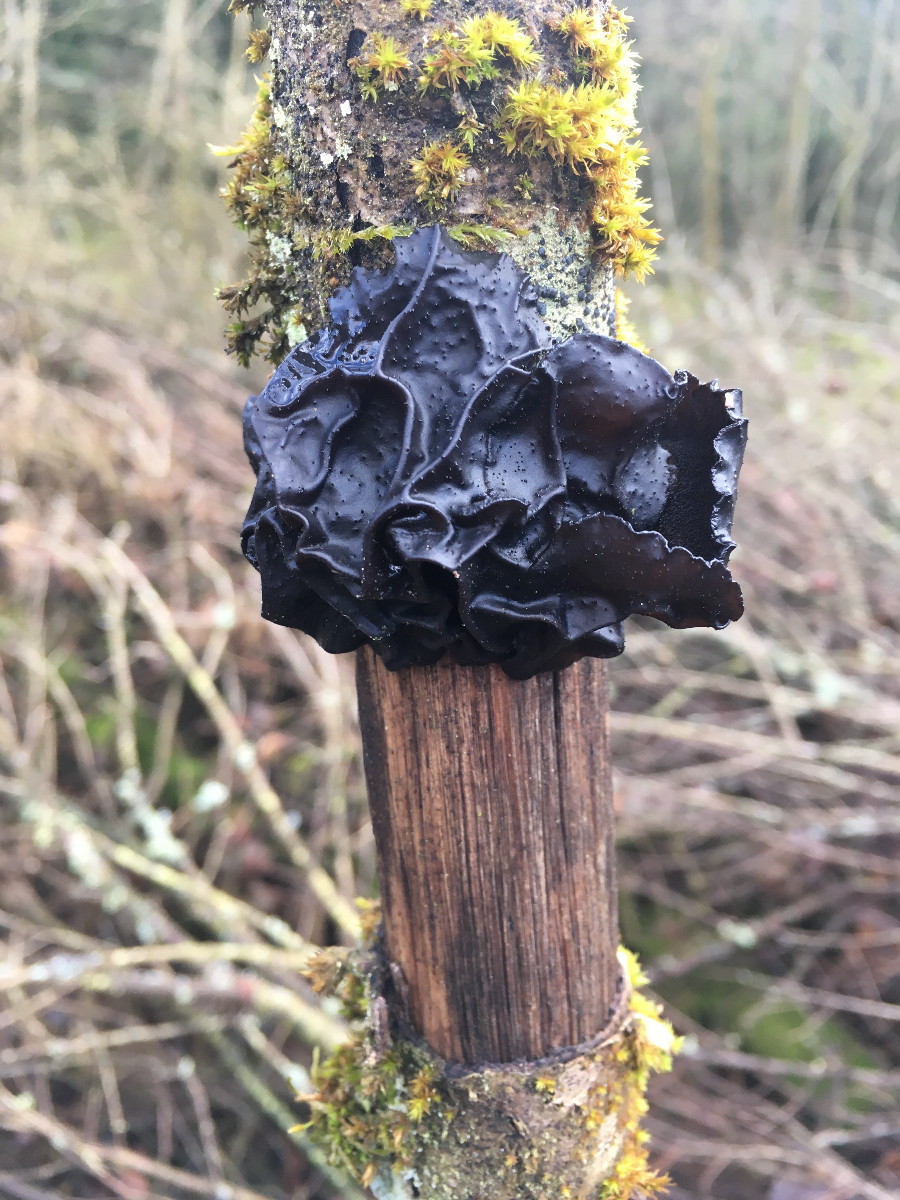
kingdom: Fungi
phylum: Basidiomycota
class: Agaricomycetes
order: Auriculariales
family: Auriculariaceae
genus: Exidia
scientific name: Exidia glandulosa
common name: ege-bævretop
